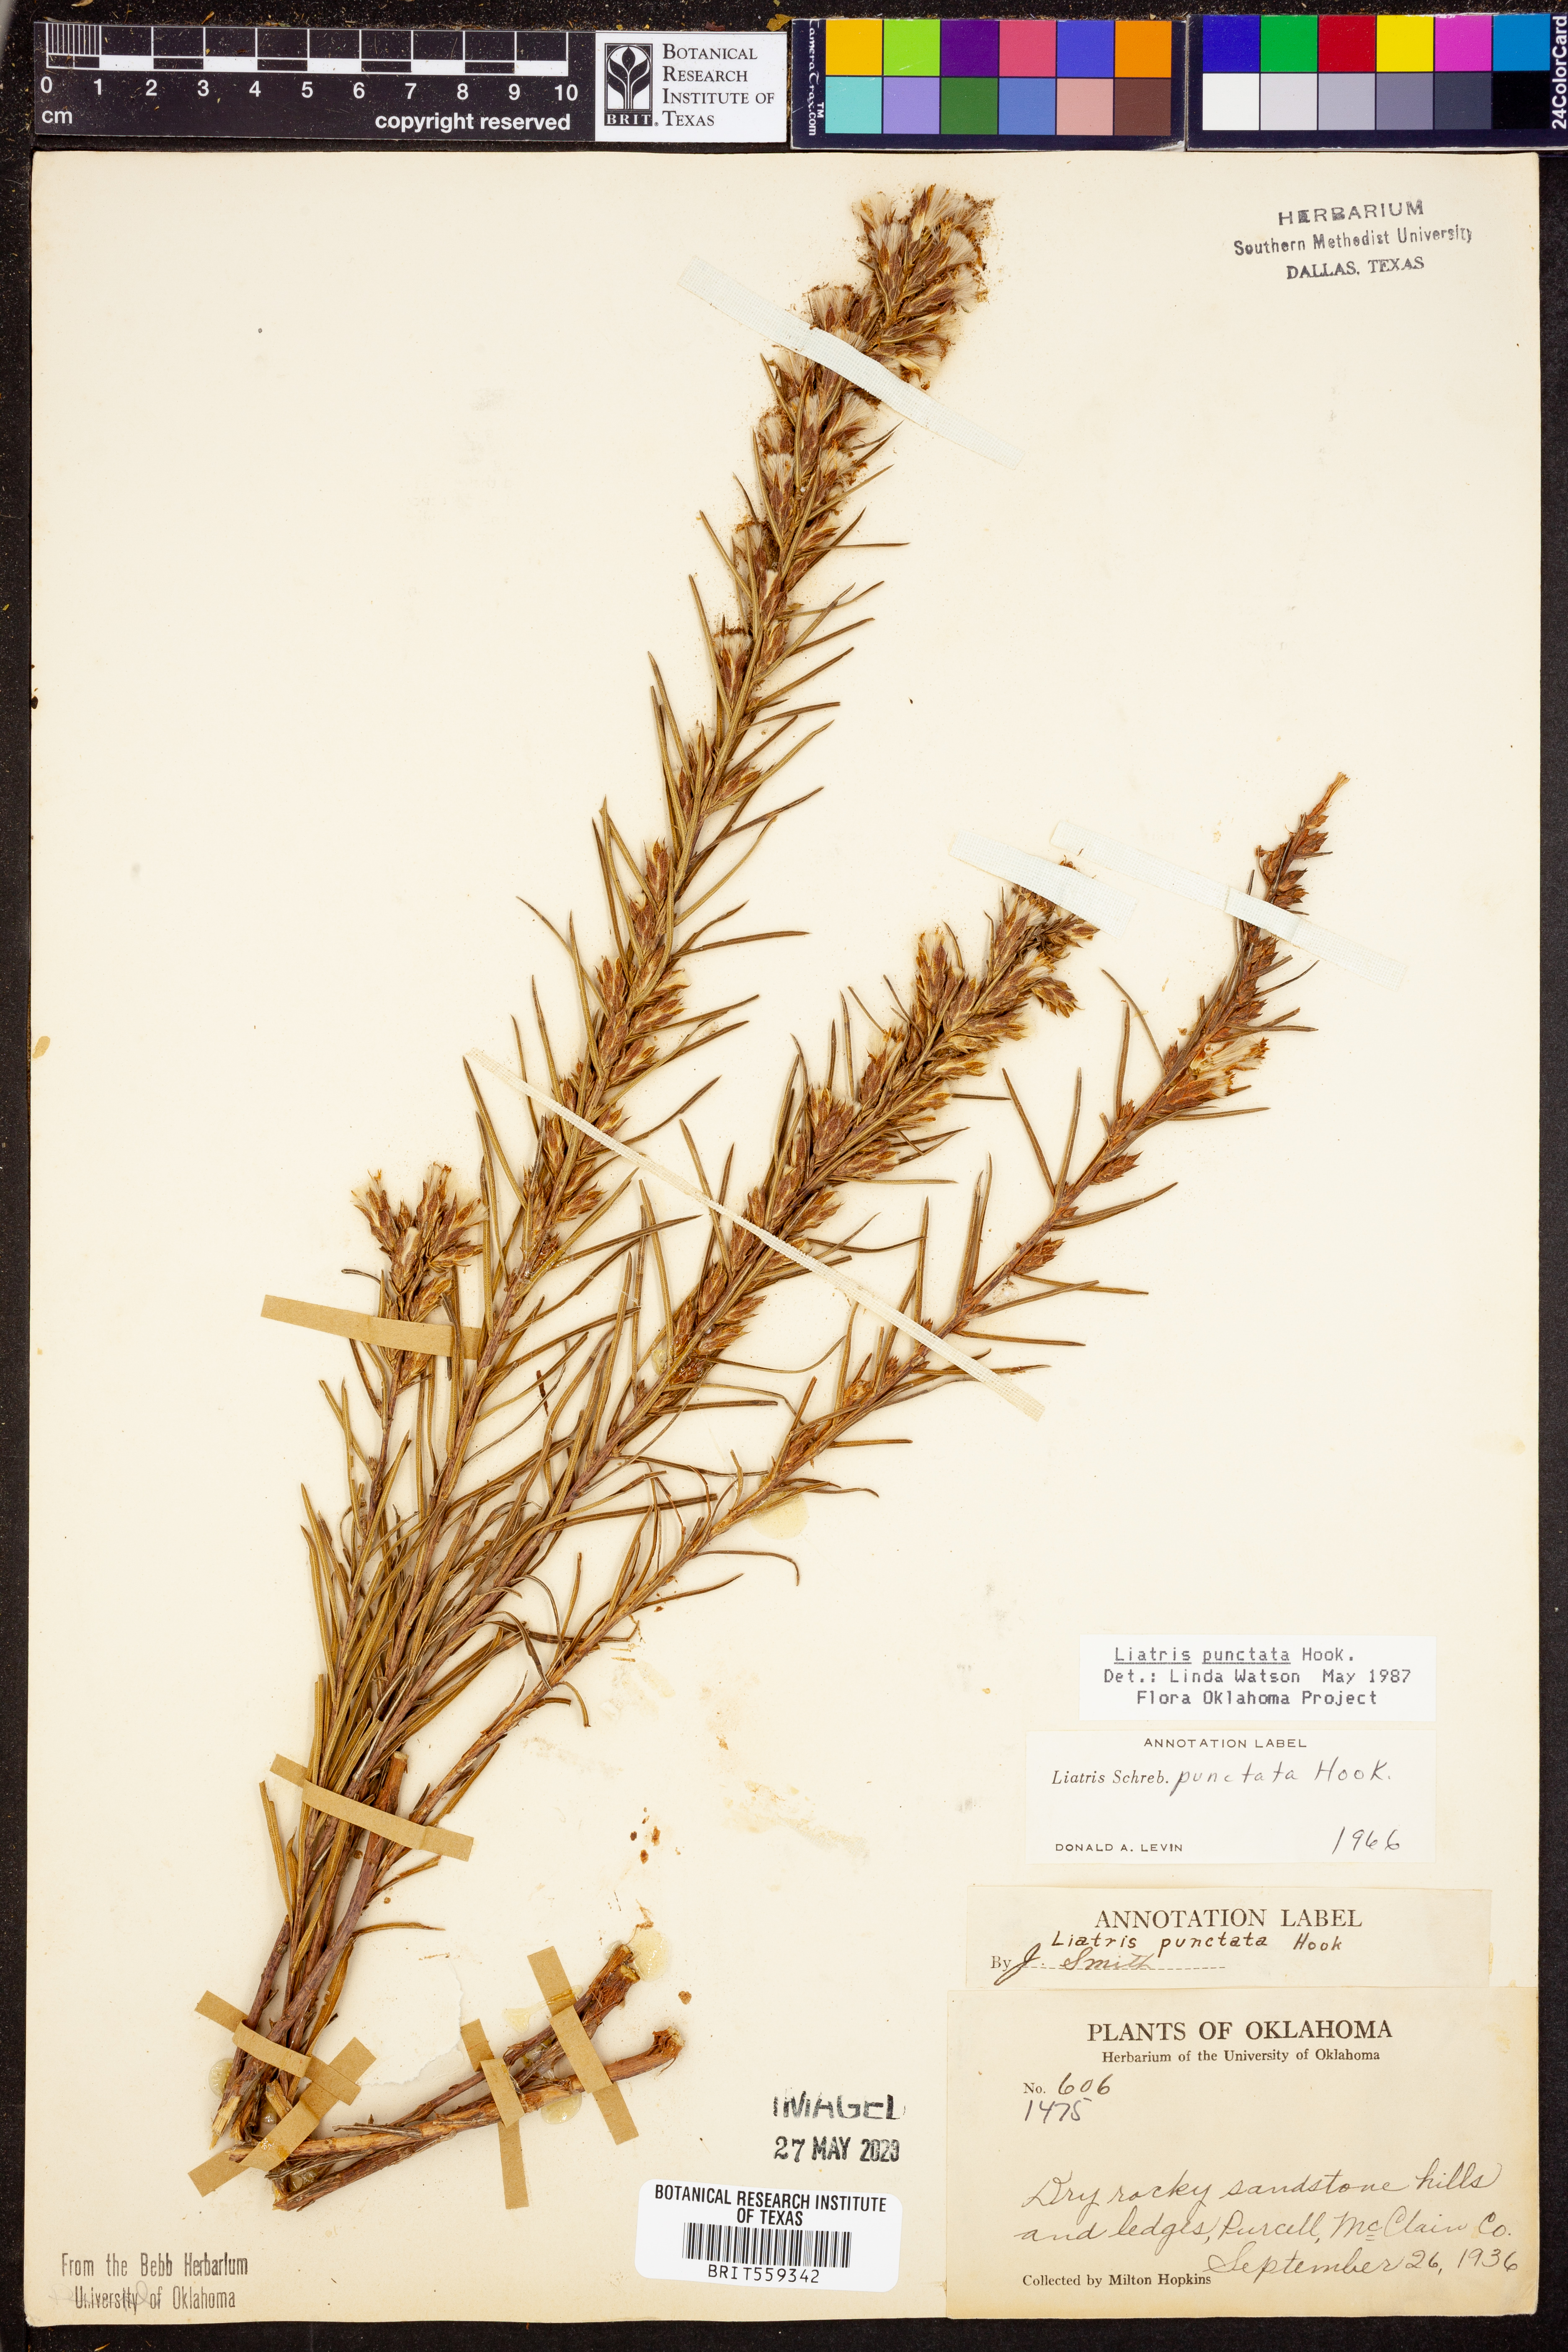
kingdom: Plantae
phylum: Tracheophyta
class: Magnoliopsida
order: Asterales
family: Asteraceae
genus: Liatris
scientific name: Liatris punctata
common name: Dotted gayfeather
